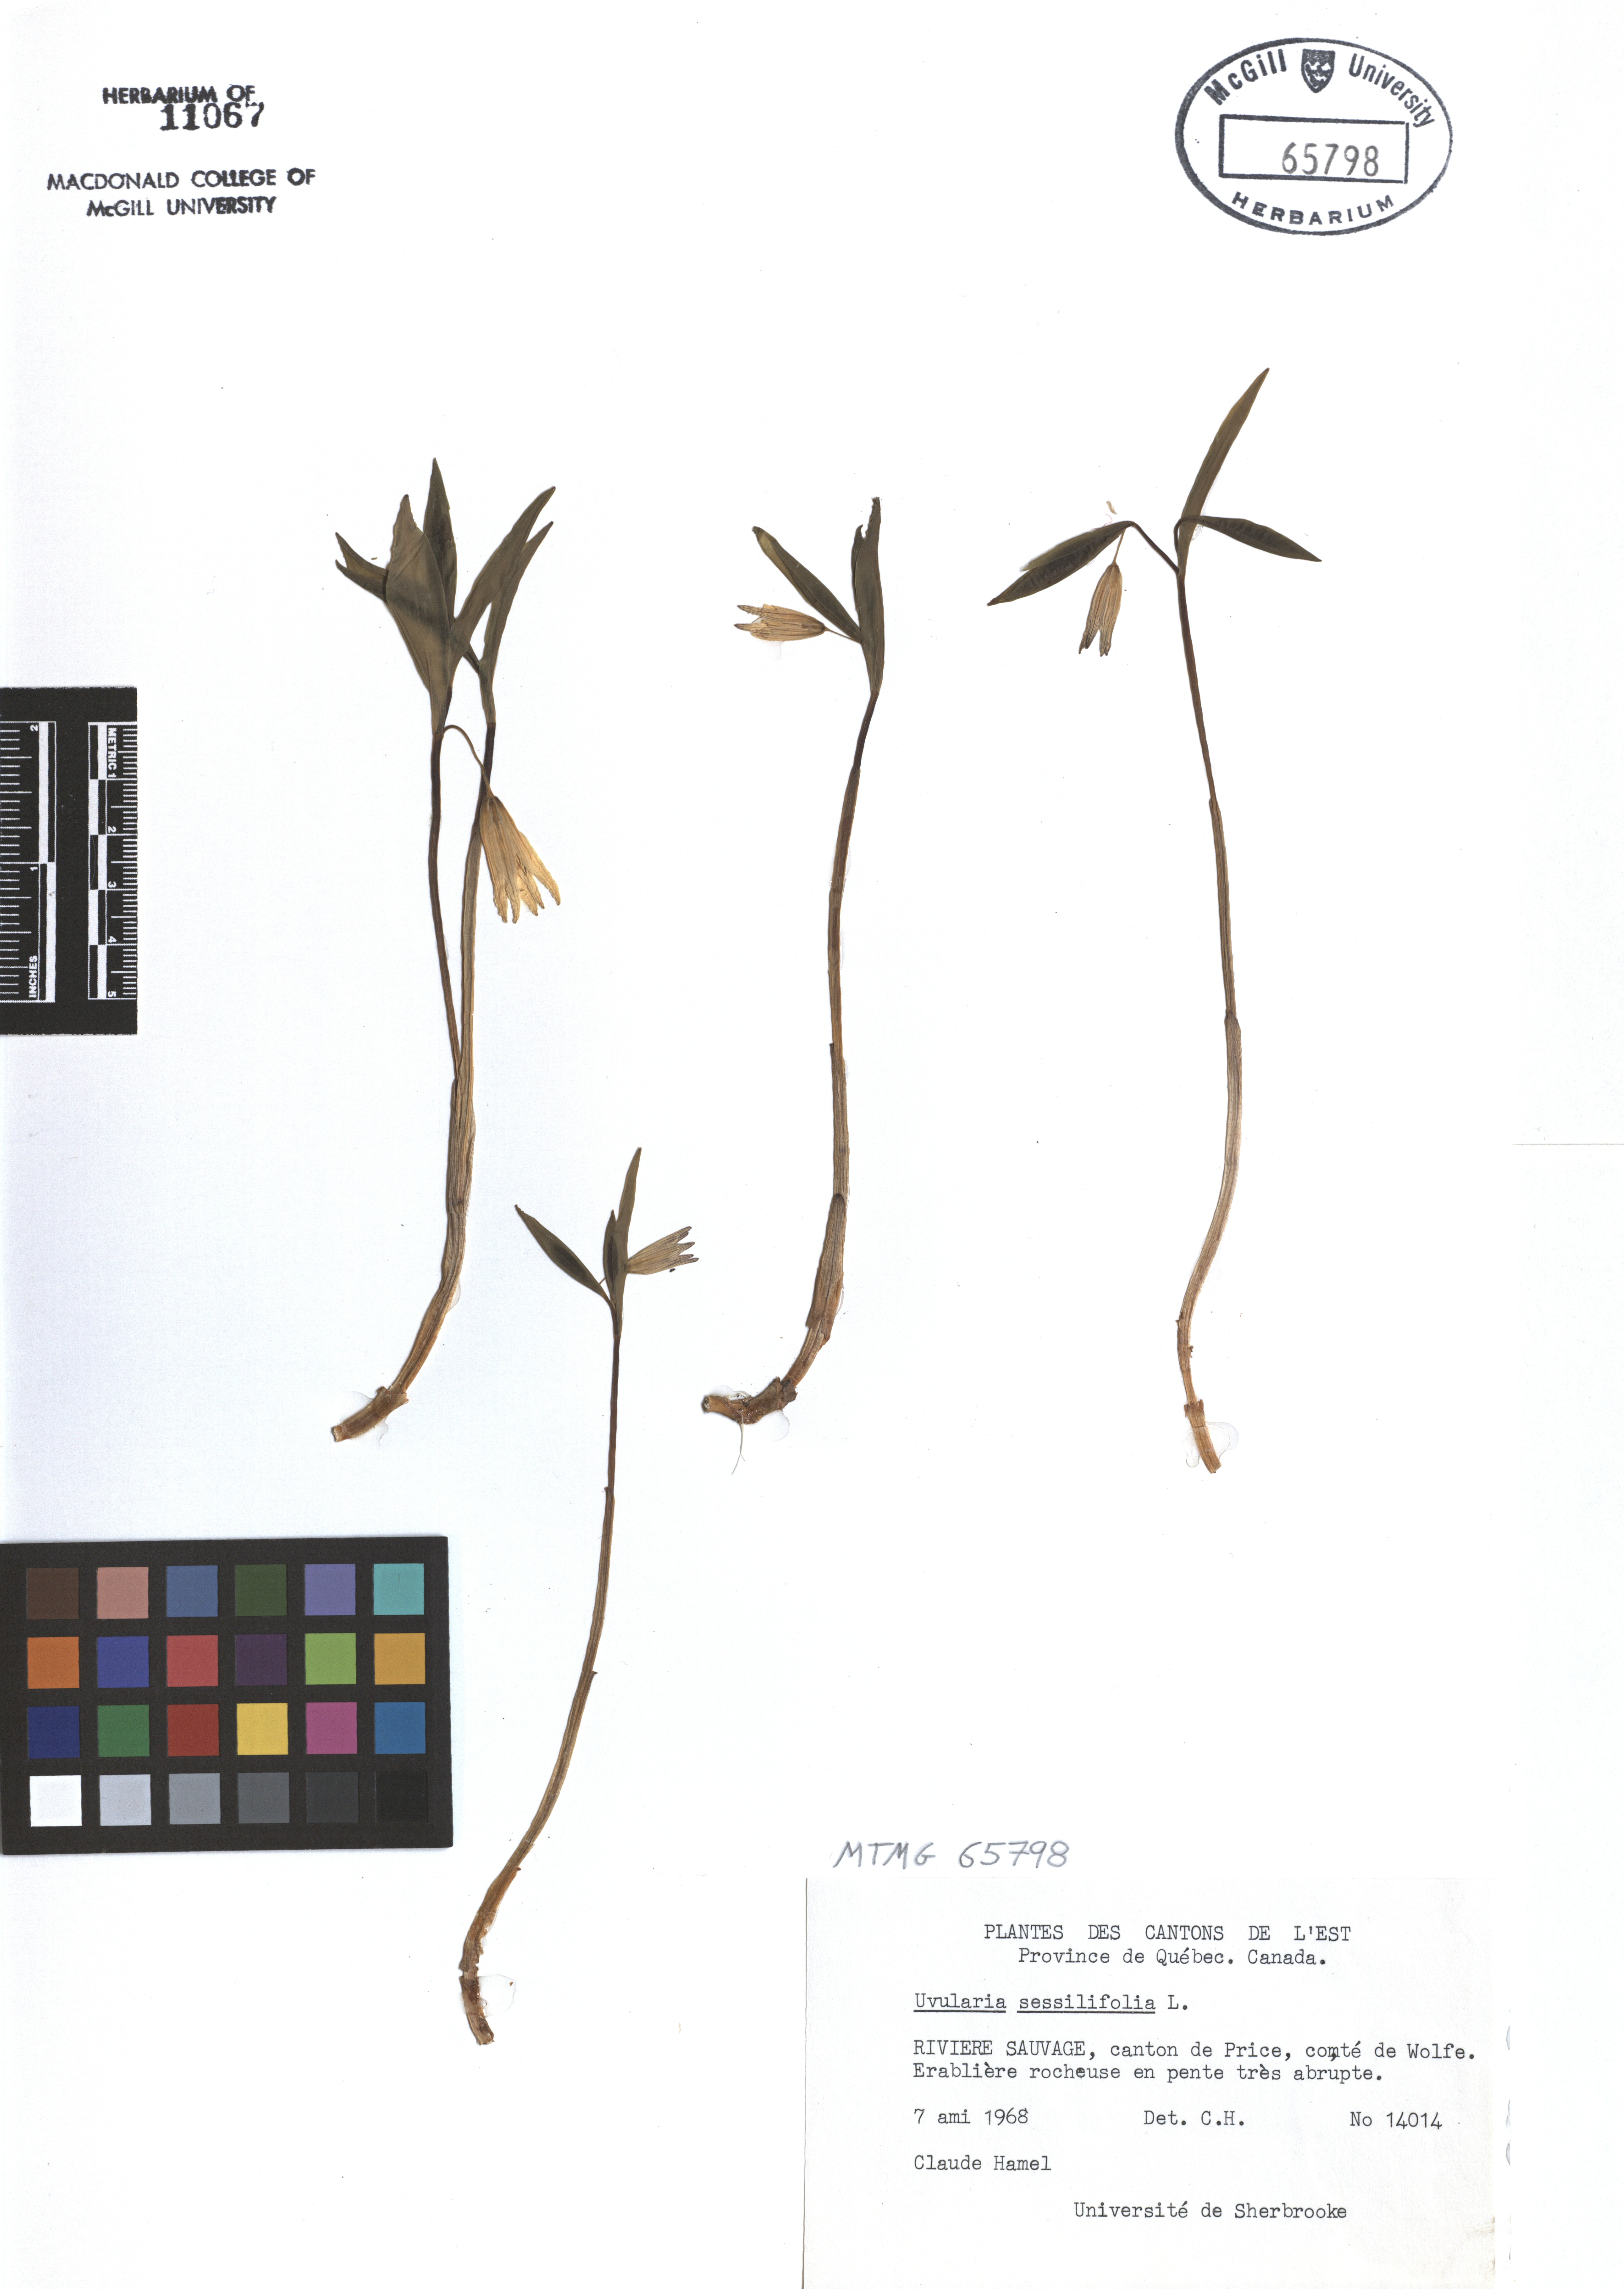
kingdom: Plantae
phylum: Tracheophyta
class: Liliopsida
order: Liliales
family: Colchicaceae
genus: Uvularia
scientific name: Uvularia sessilifolia
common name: Straw-lily
